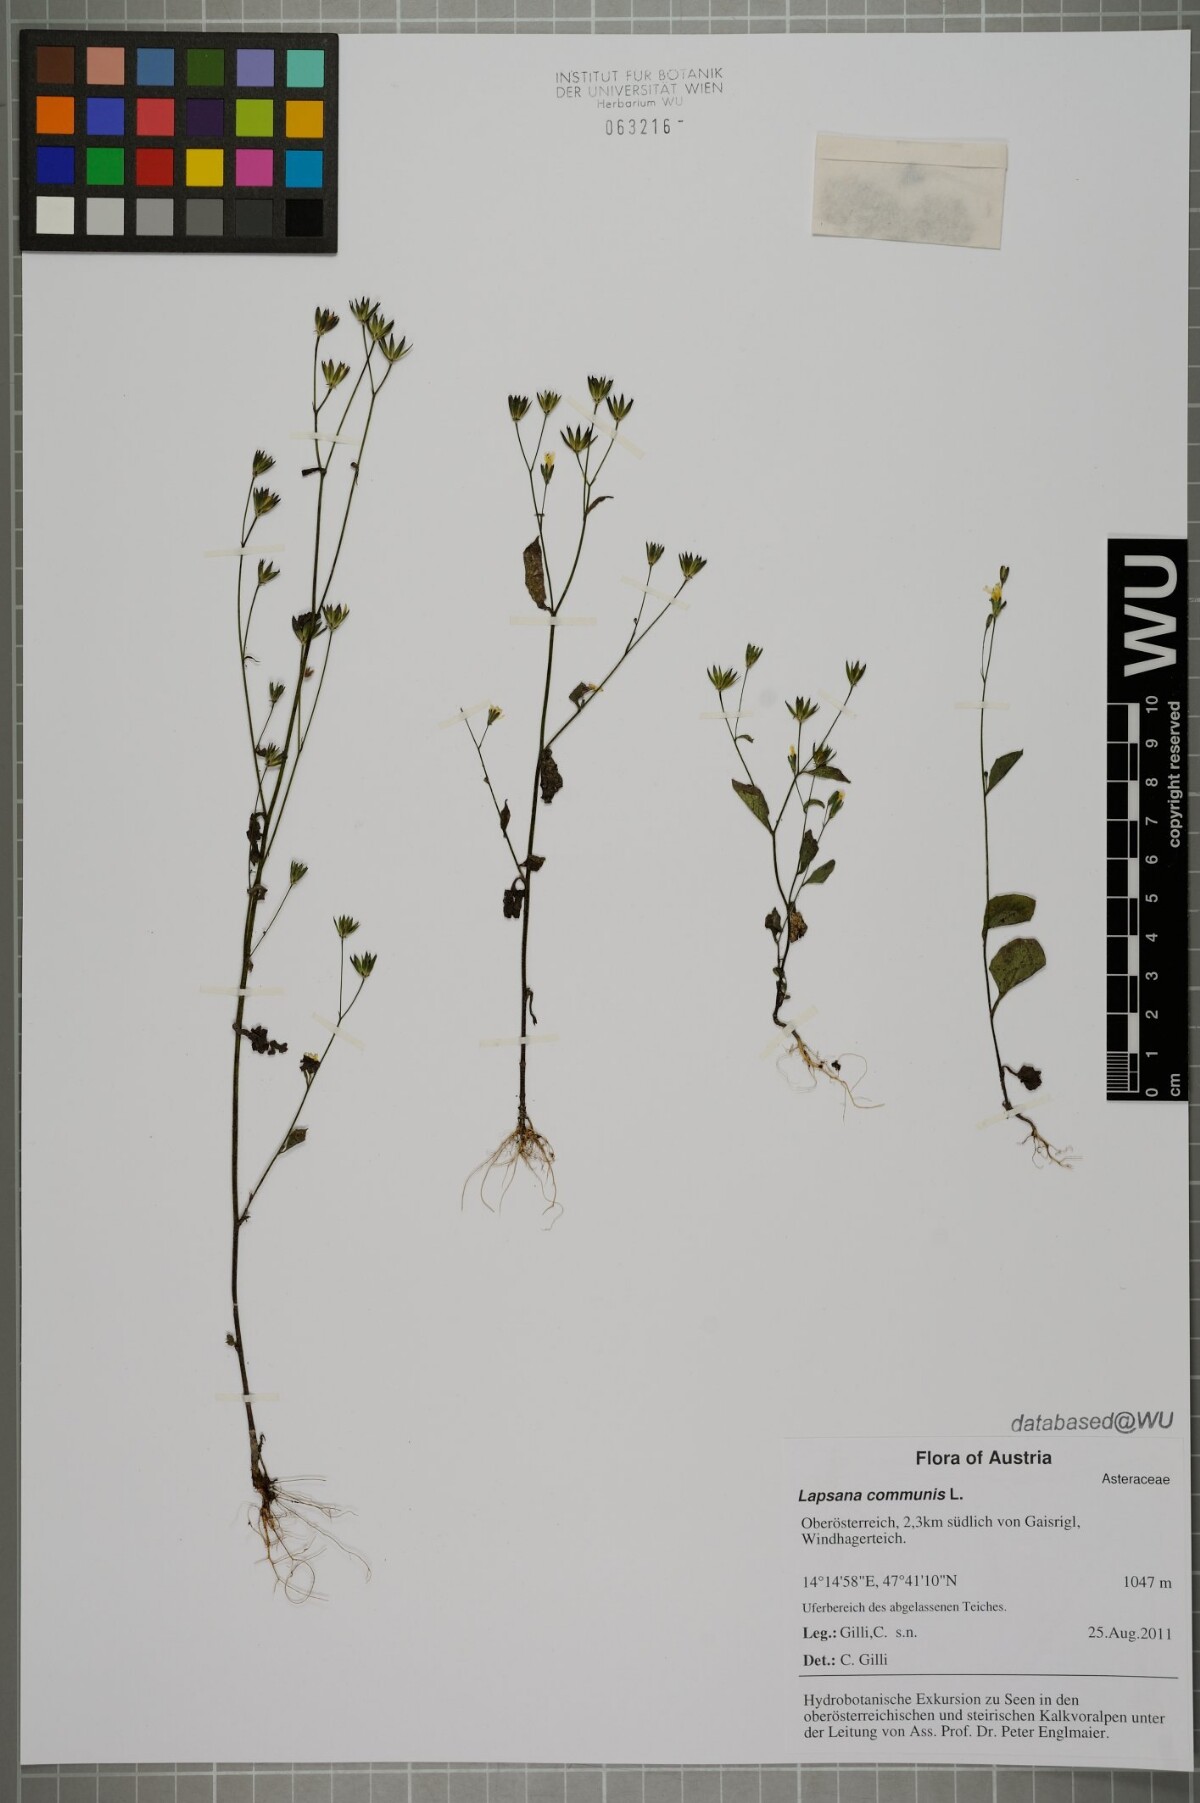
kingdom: Plantae
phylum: Tracheophyta
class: Magnoliopsida
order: Asterales
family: Asteraceae
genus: Lapsana
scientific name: Lapsana communis
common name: Nipplewort
